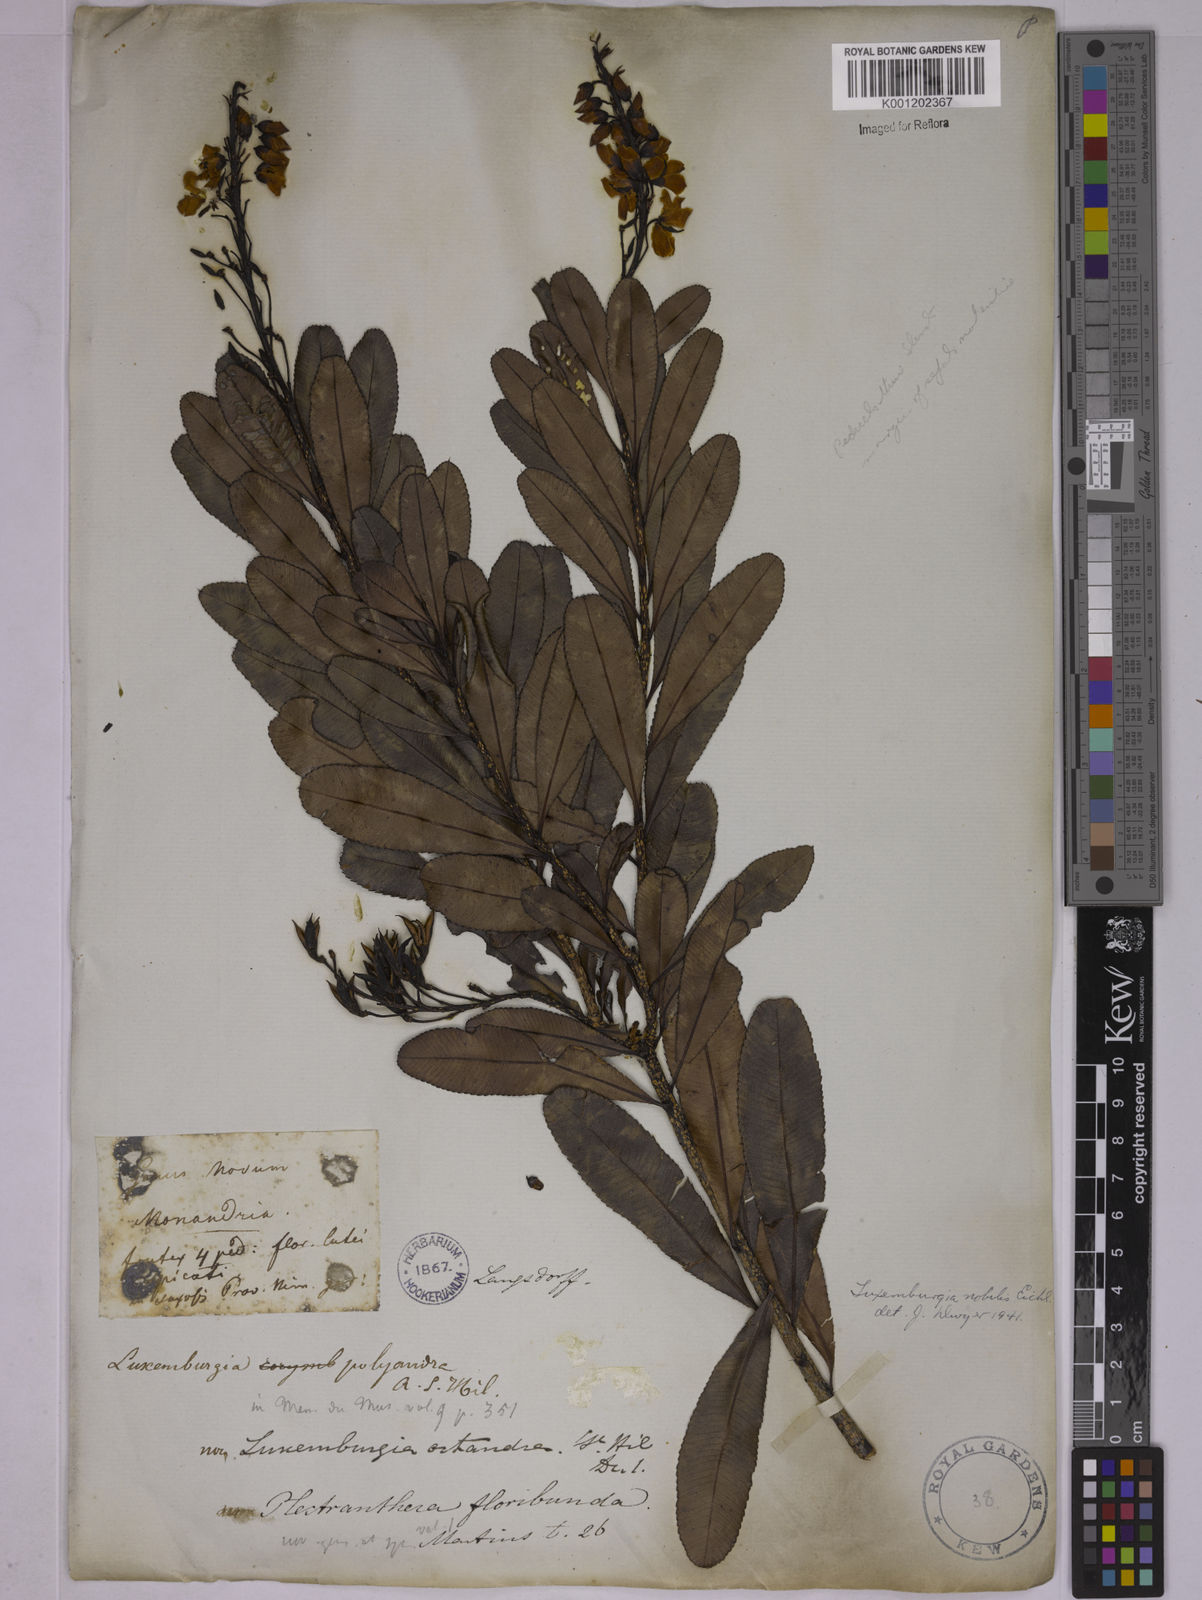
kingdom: Plantae
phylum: Tracheophyta
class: Magnoliopsida
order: Malpighiales
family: Ochnaceae
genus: Luxemburgia
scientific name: Luxemburgia nobilis
